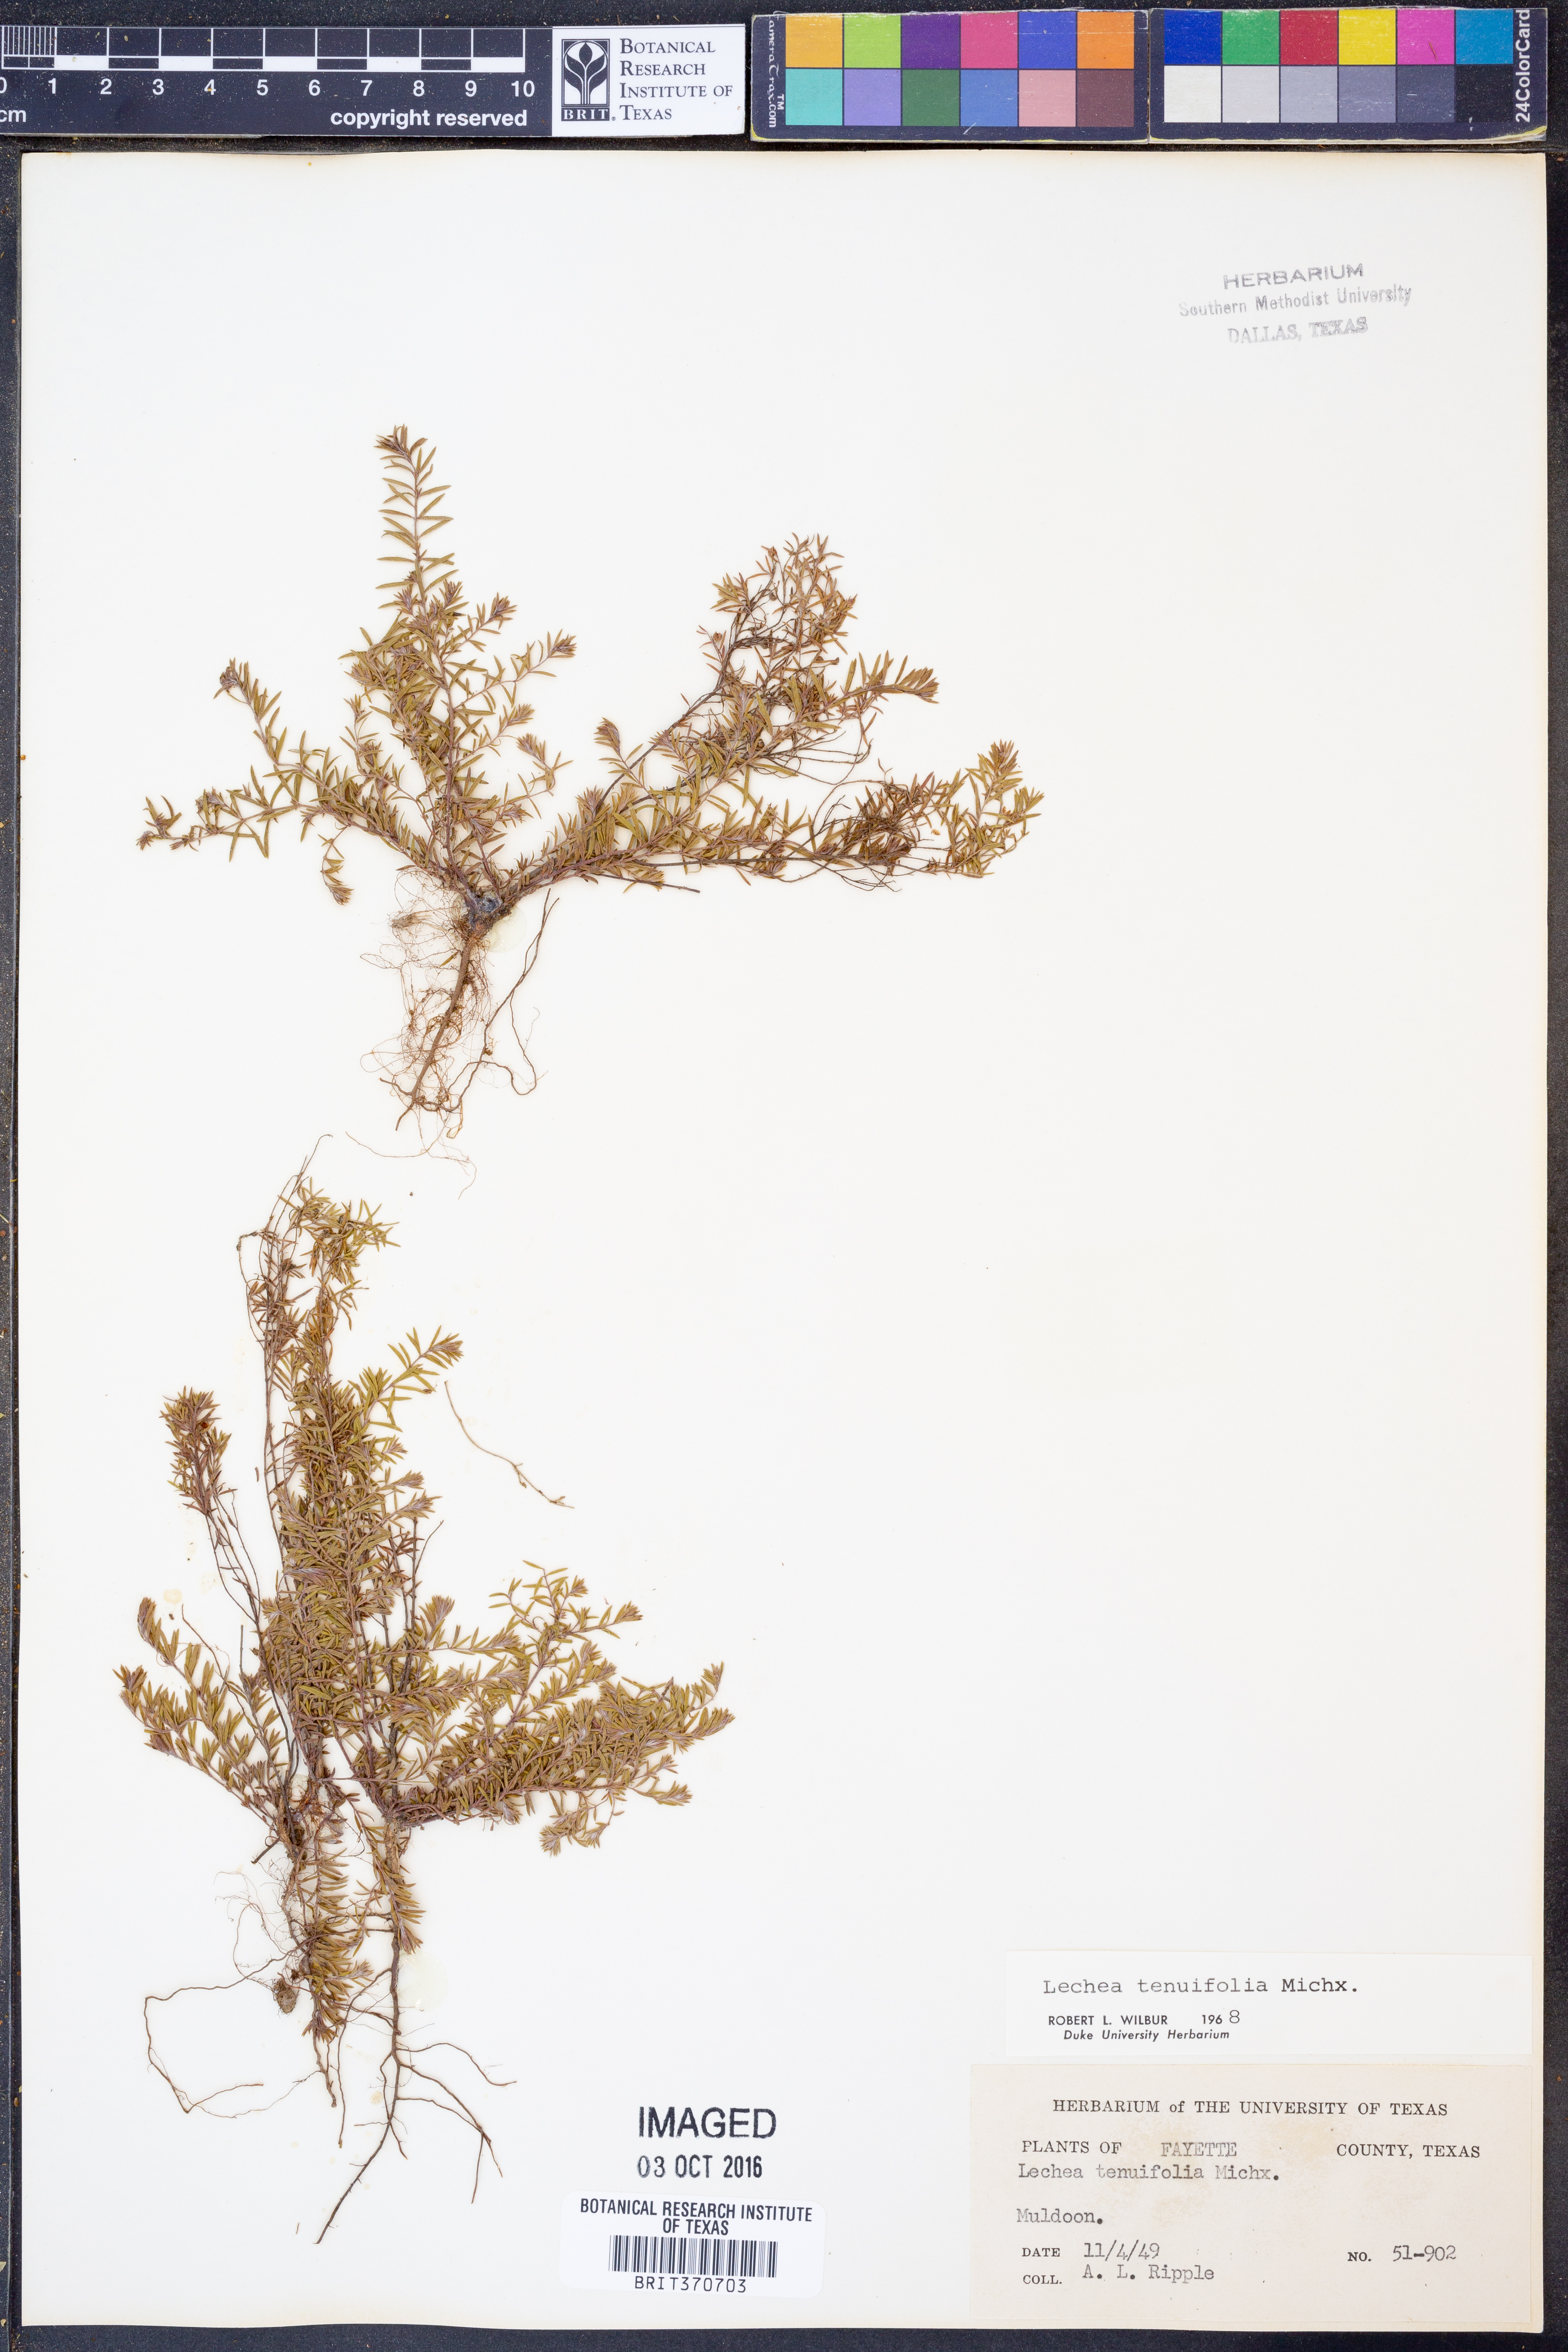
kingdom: Plantae
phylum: Tracheophyta
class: Magnoliopsida
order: Malvales
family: Cistaceae
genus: Lechea
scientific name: Lechea tenuifolia
